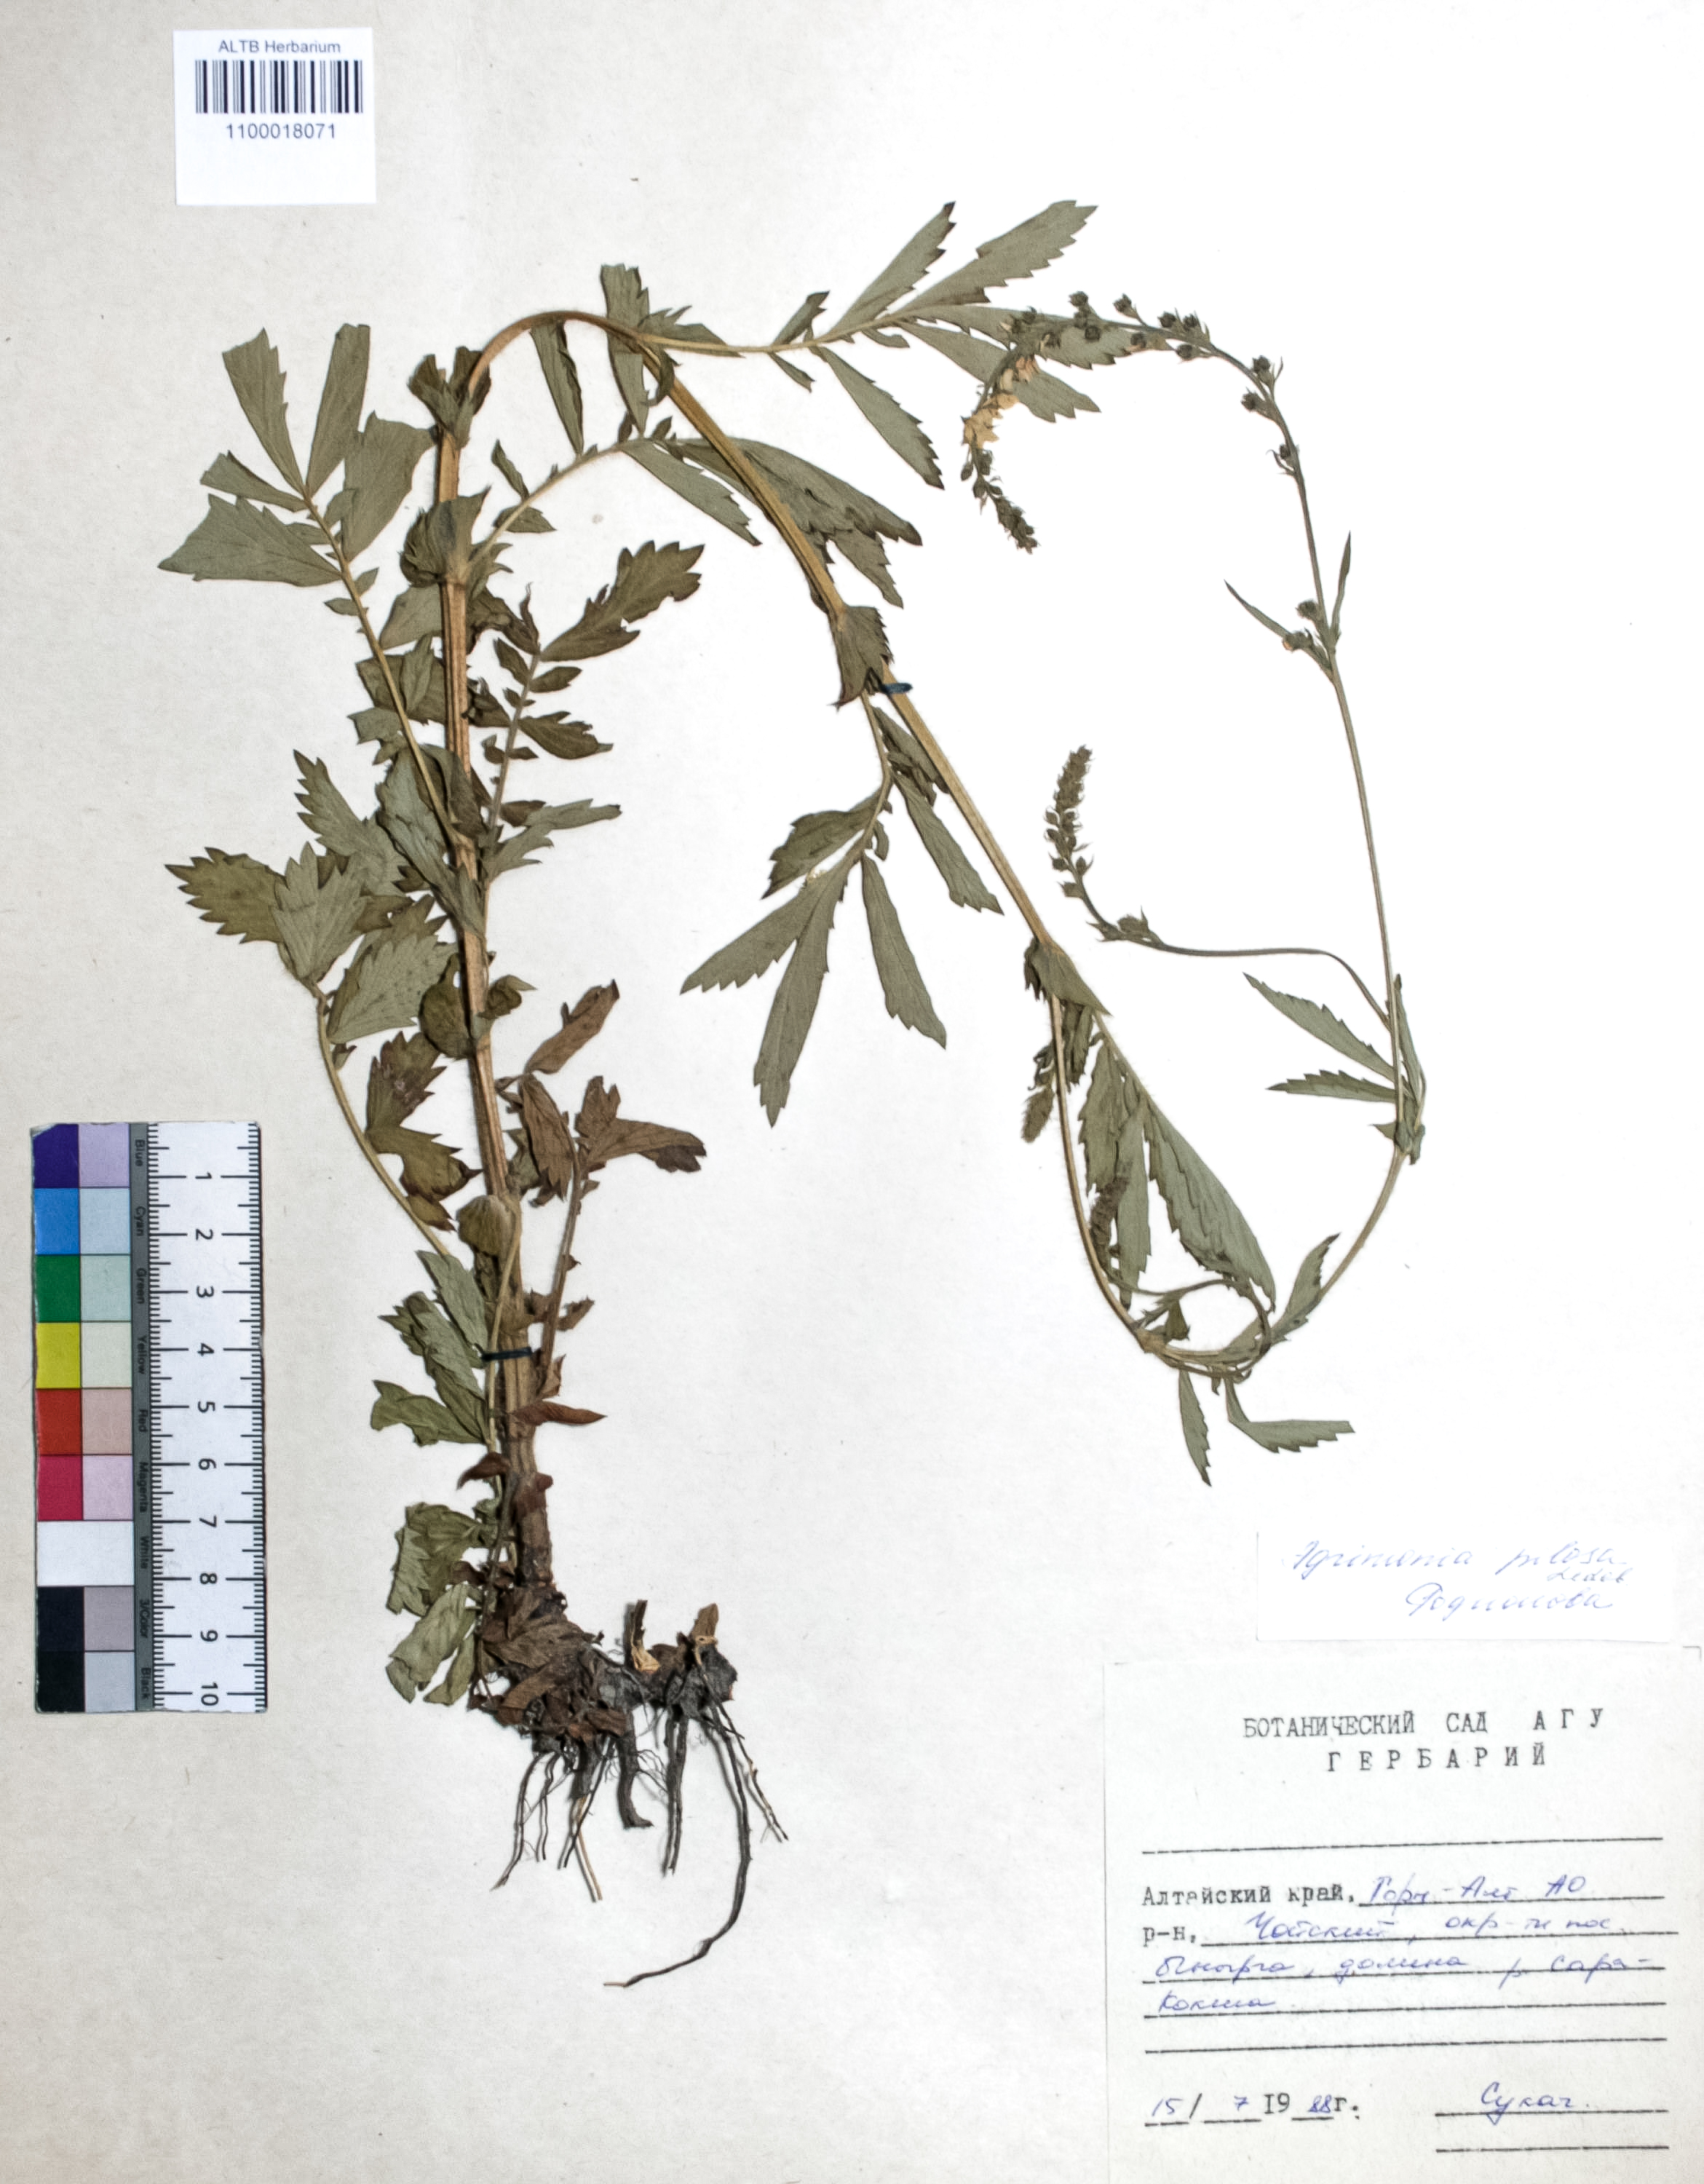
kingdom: Plantae
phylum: Tracheophyta
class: Magnoliopsida
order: Rosales
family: Rosaceae
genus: Agrimonia
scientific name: Agrimonia pilosa
